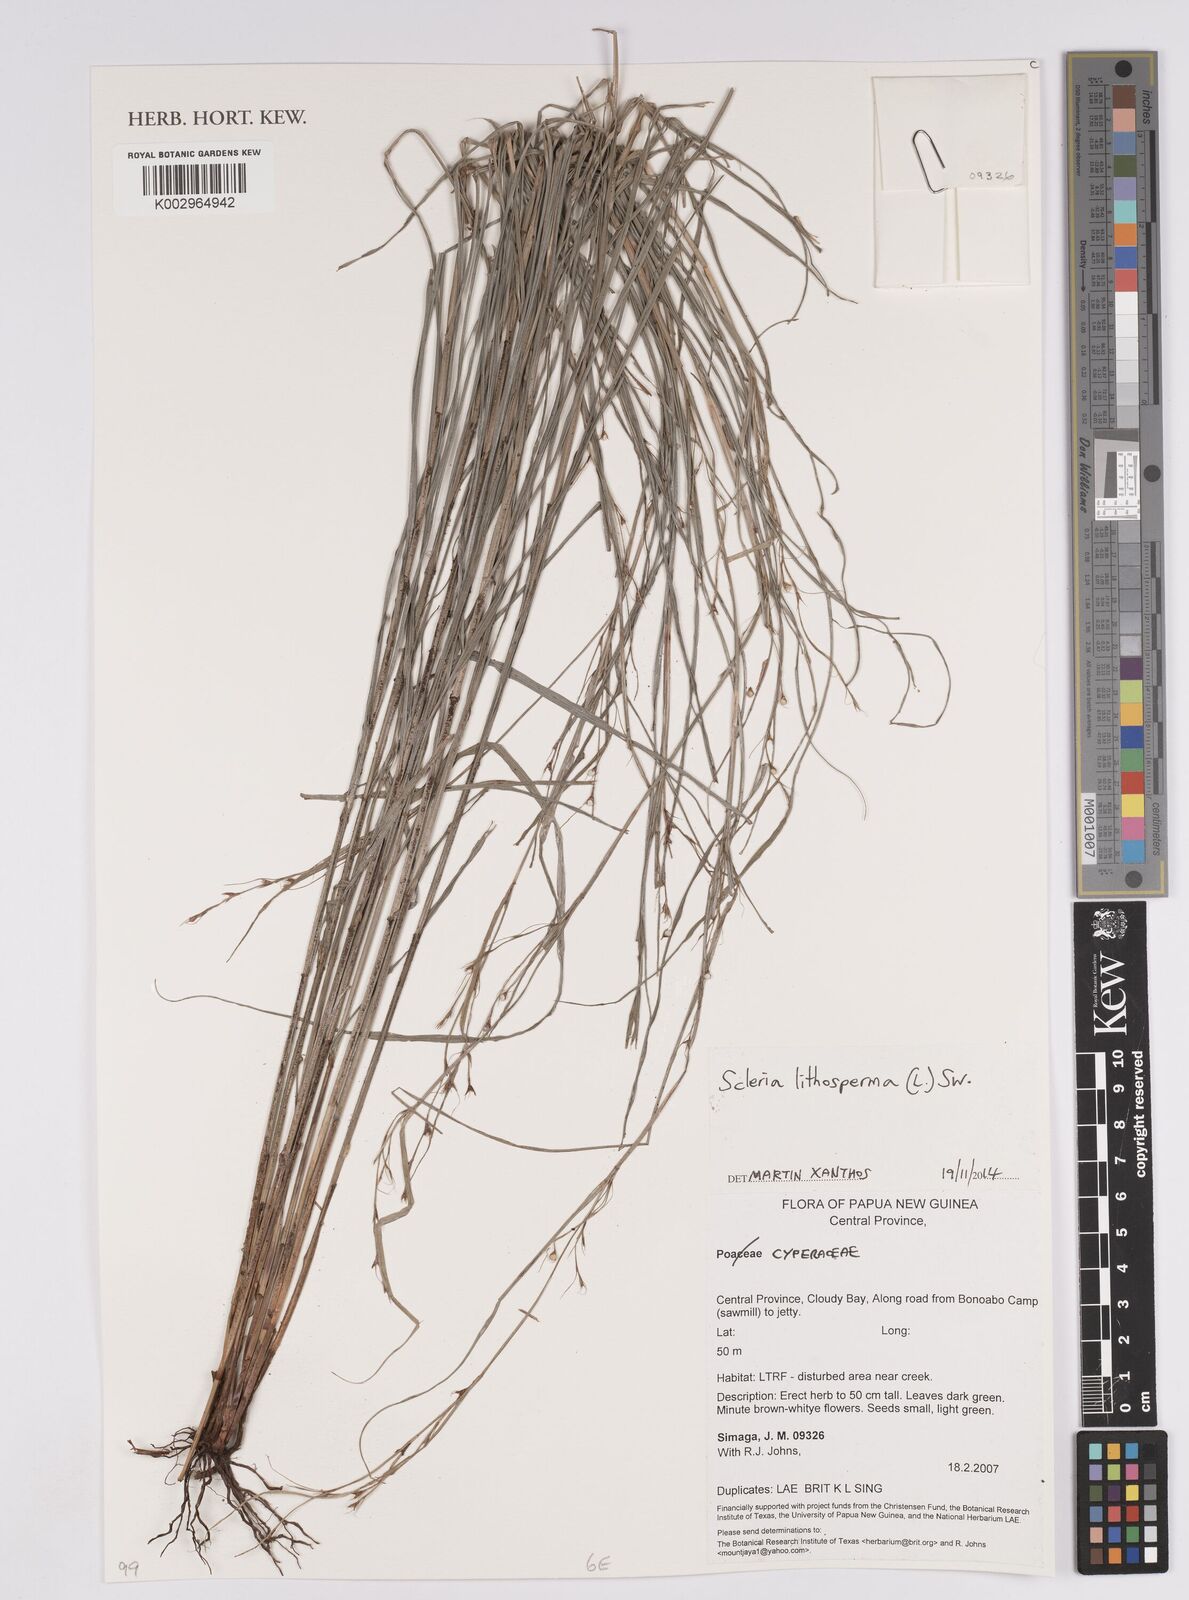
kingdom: Plantae
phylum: Tracheophyta
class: Liliopsida
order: Poales
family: Cyperaceae
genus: Scleria
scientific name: Scleria lithosperma
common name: Florida keys nut-rush
